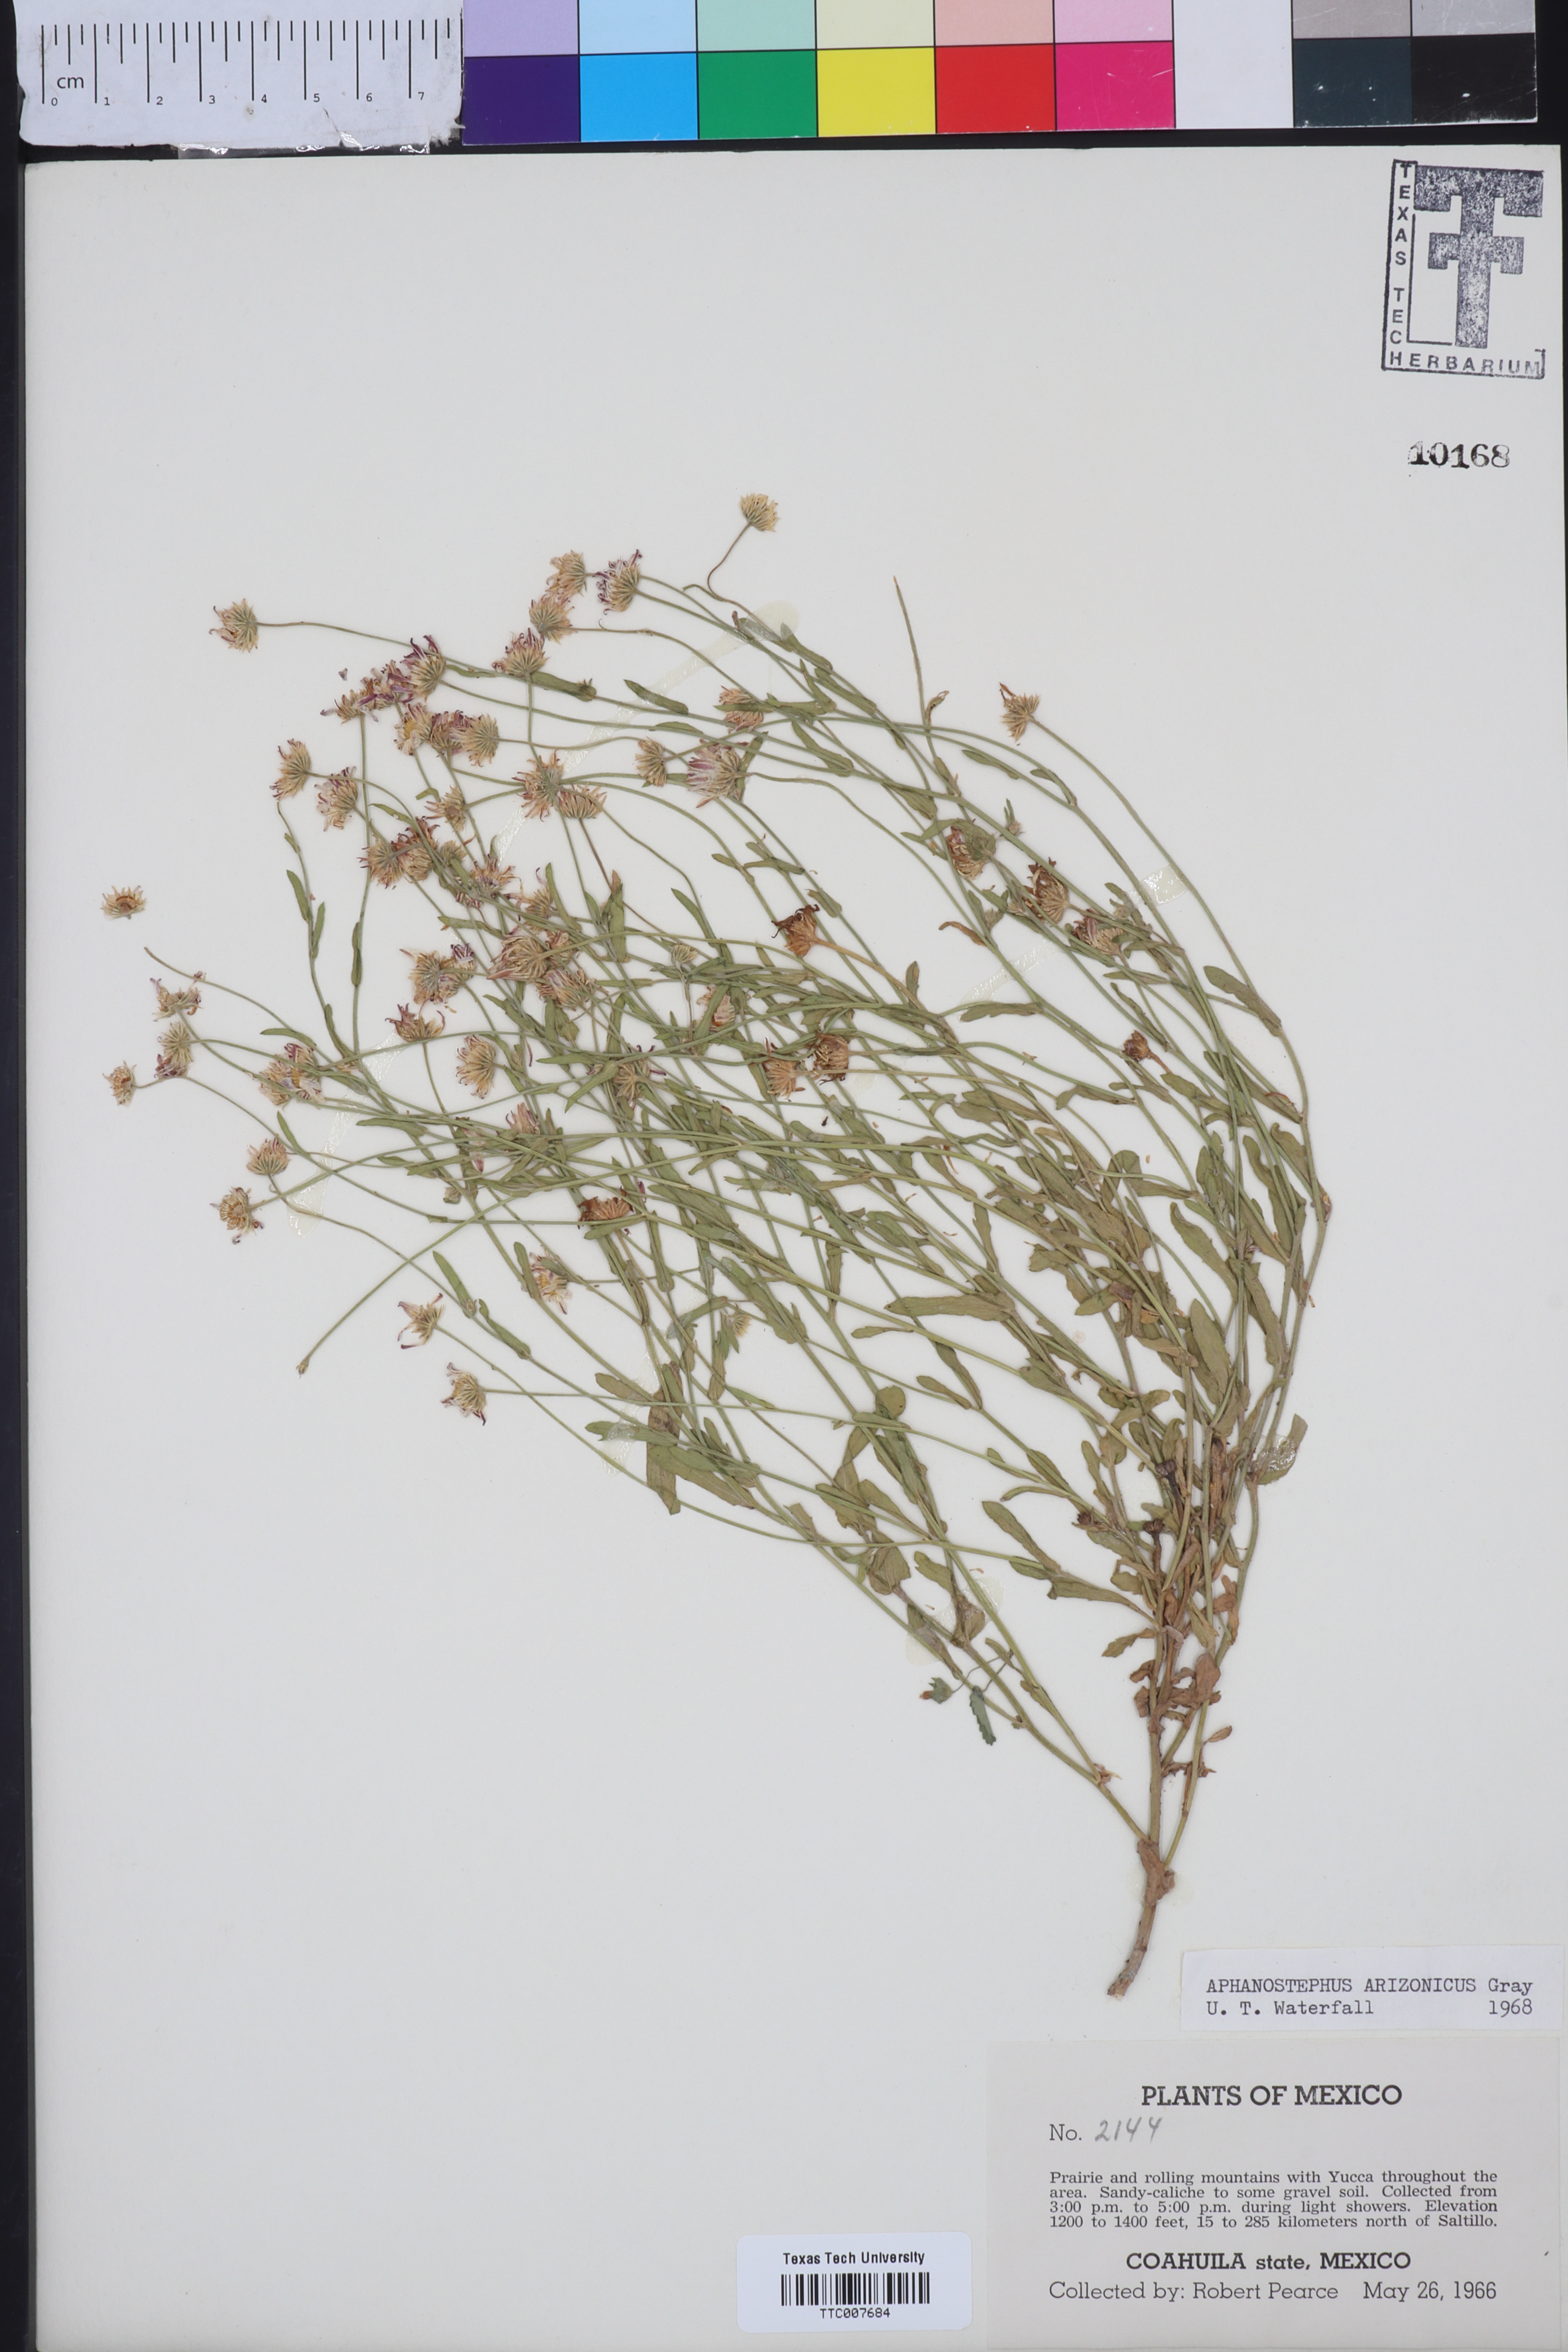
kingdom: Plantae
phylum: Tracheophyta
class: Magnoliopsida
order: Asterales
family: Asteraceae
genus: Aphanostephus
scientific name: Aphanostephus ramosissimus
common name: Plains lazy daisy
